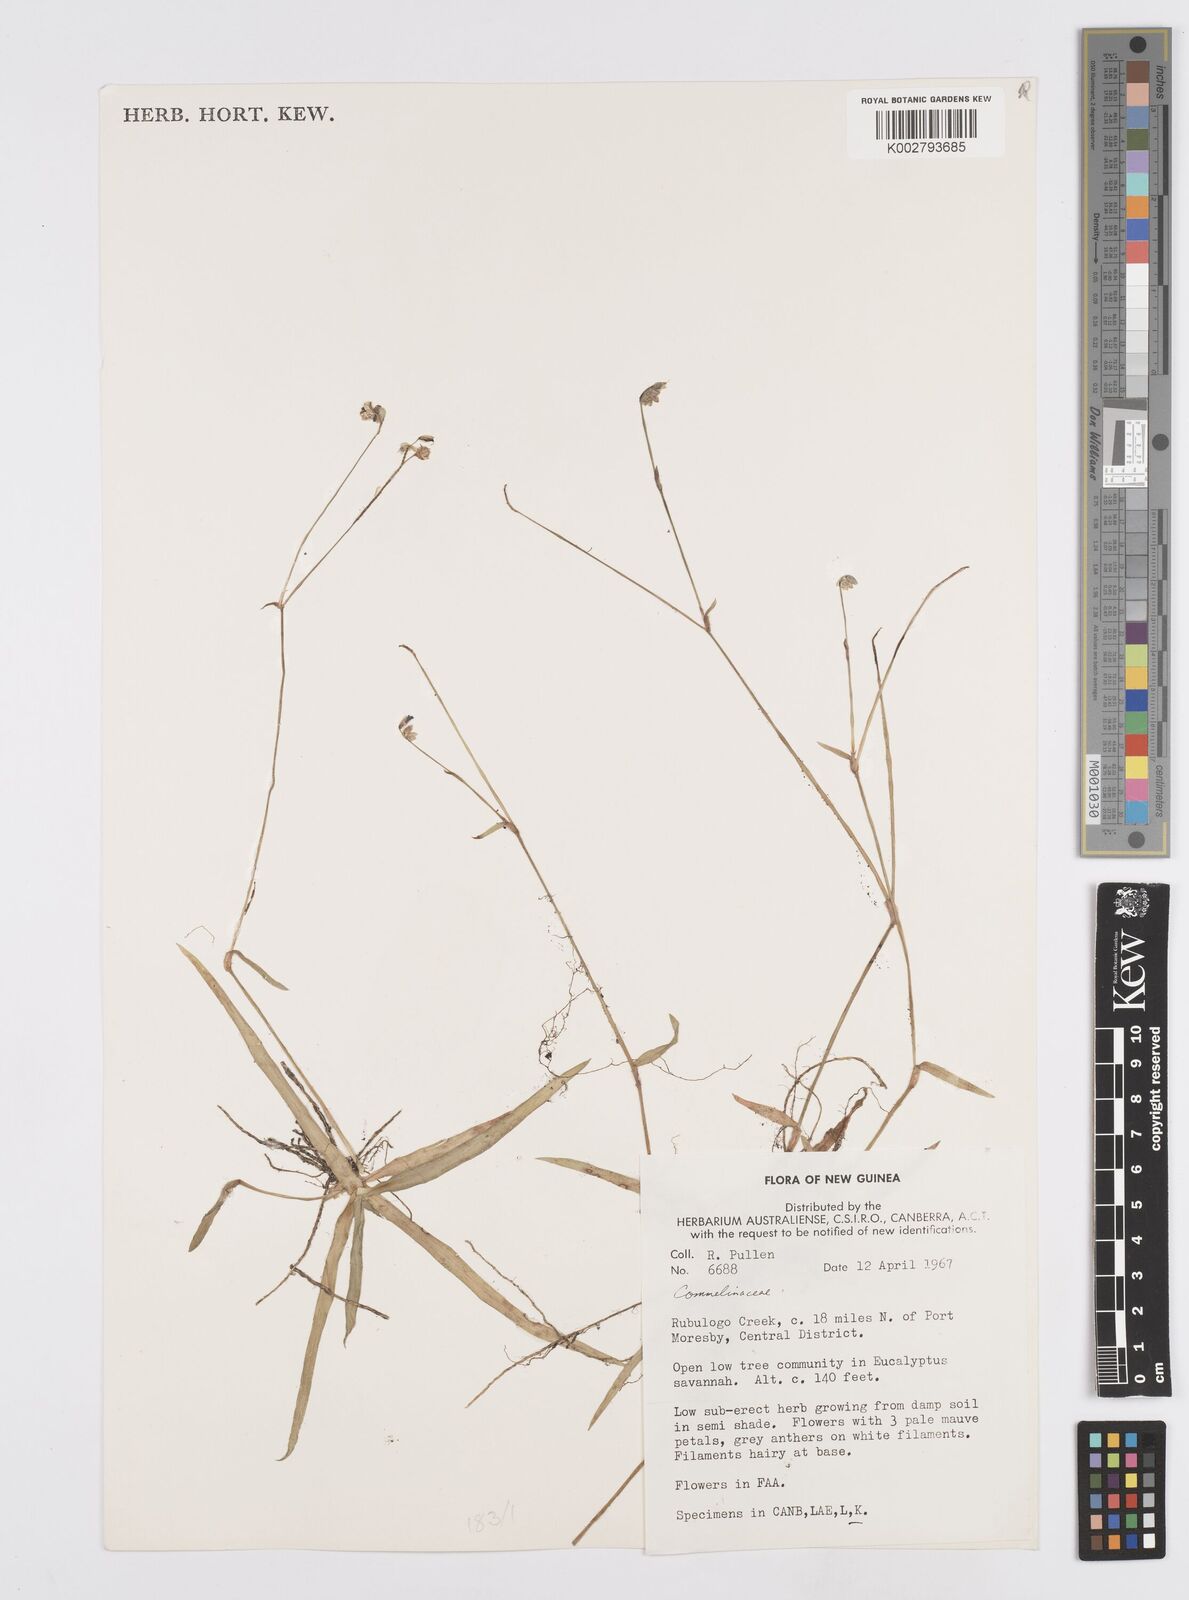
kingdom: Plantae
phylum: Tracheophyta
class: Liliopsida
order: Commelinales
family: Commelinaceae
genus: Murdannia
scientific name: Murdannia
